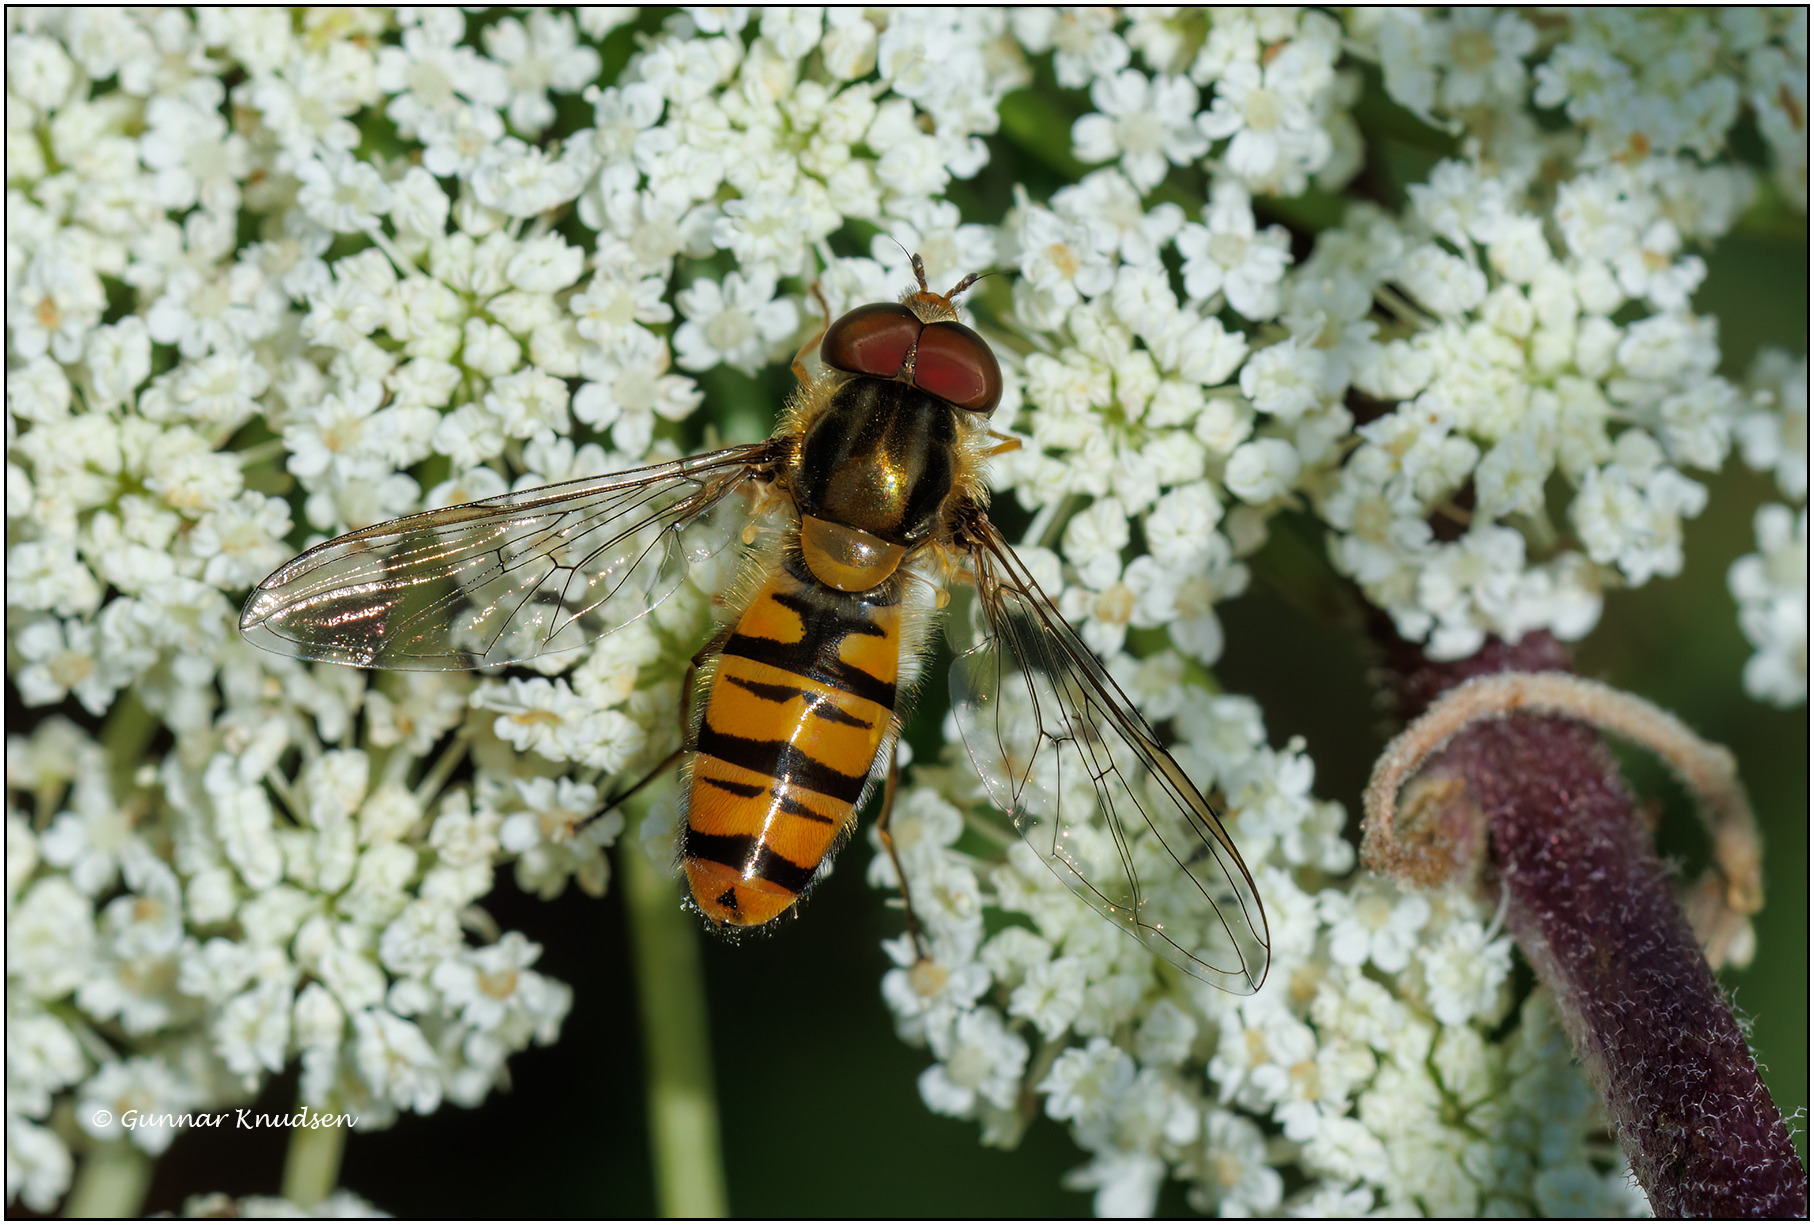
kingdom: Animalia
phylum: Arthropoda
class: Insecta
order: Diptera
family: Syrphidae
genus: Episyrphus
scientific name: Episyrphus balteatus
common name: Dobbeltbåndet svirreflue
